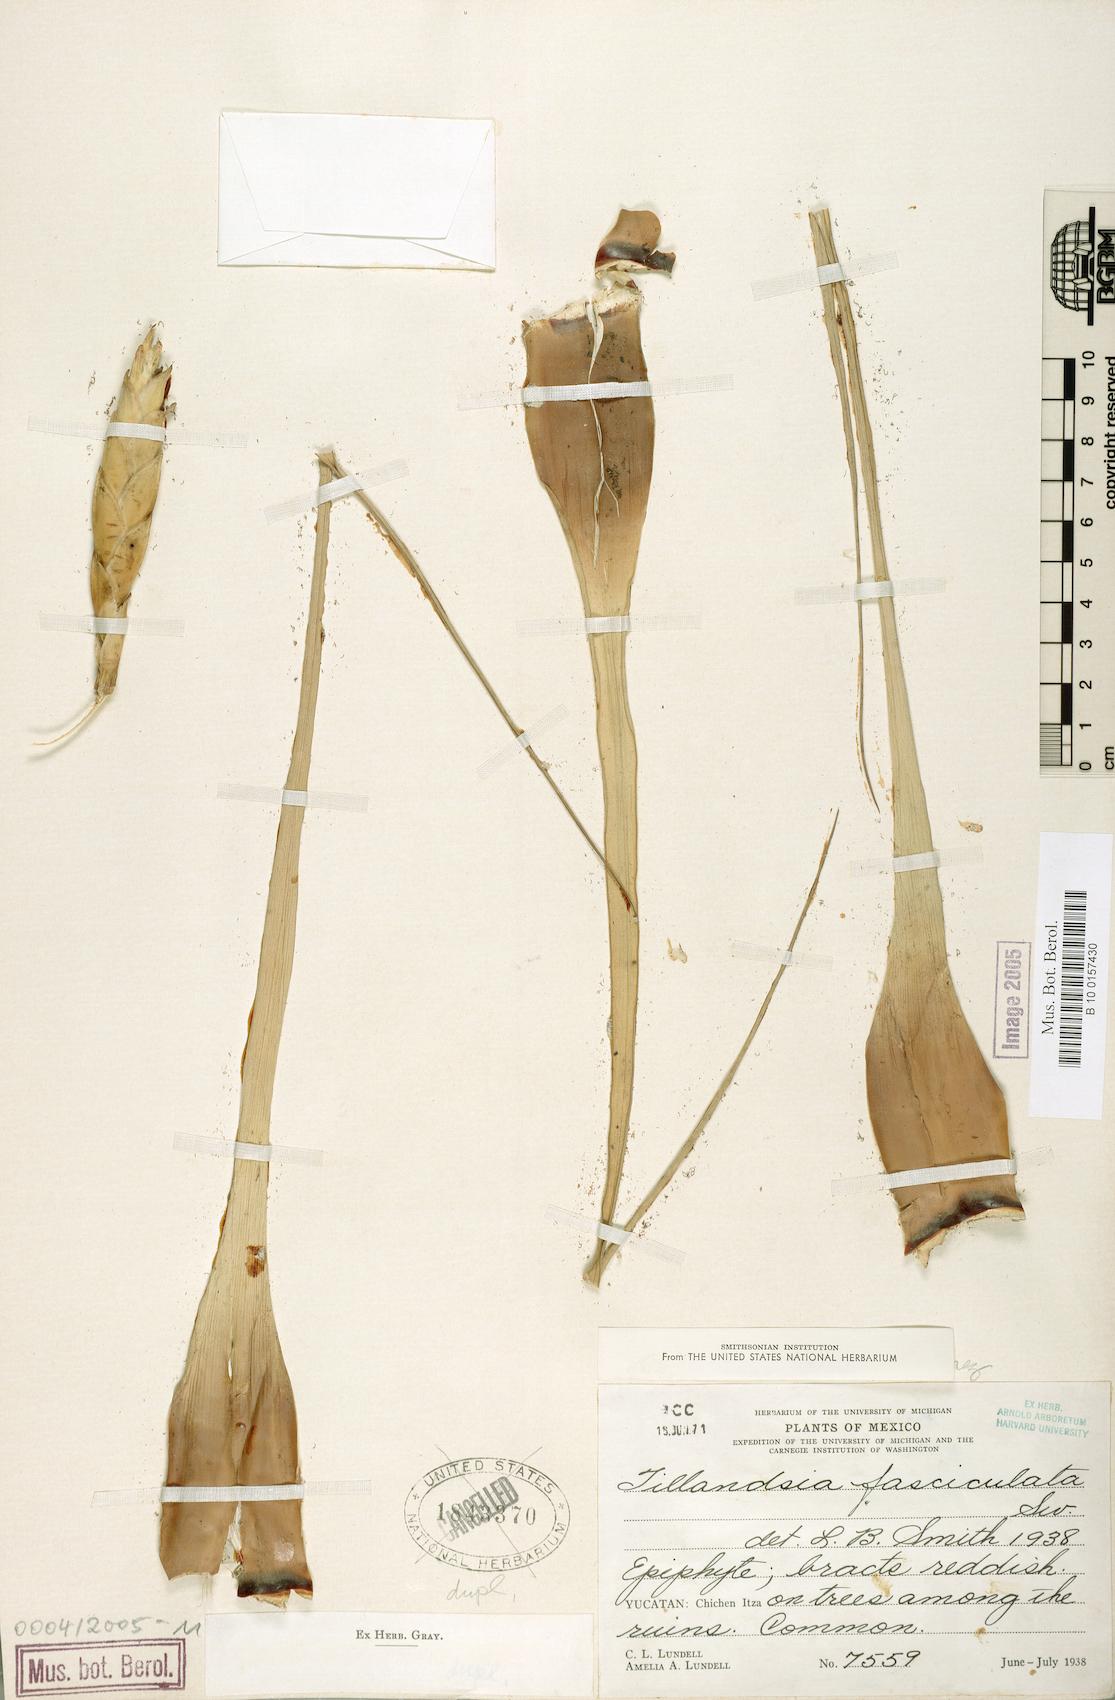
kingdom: Plantae
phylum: Tracheophyta
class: Liliopsida
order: Poales
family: Bromeliaceae
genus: Tillandsia
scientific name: Tillandsia fasciculata
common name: Giant airplant
